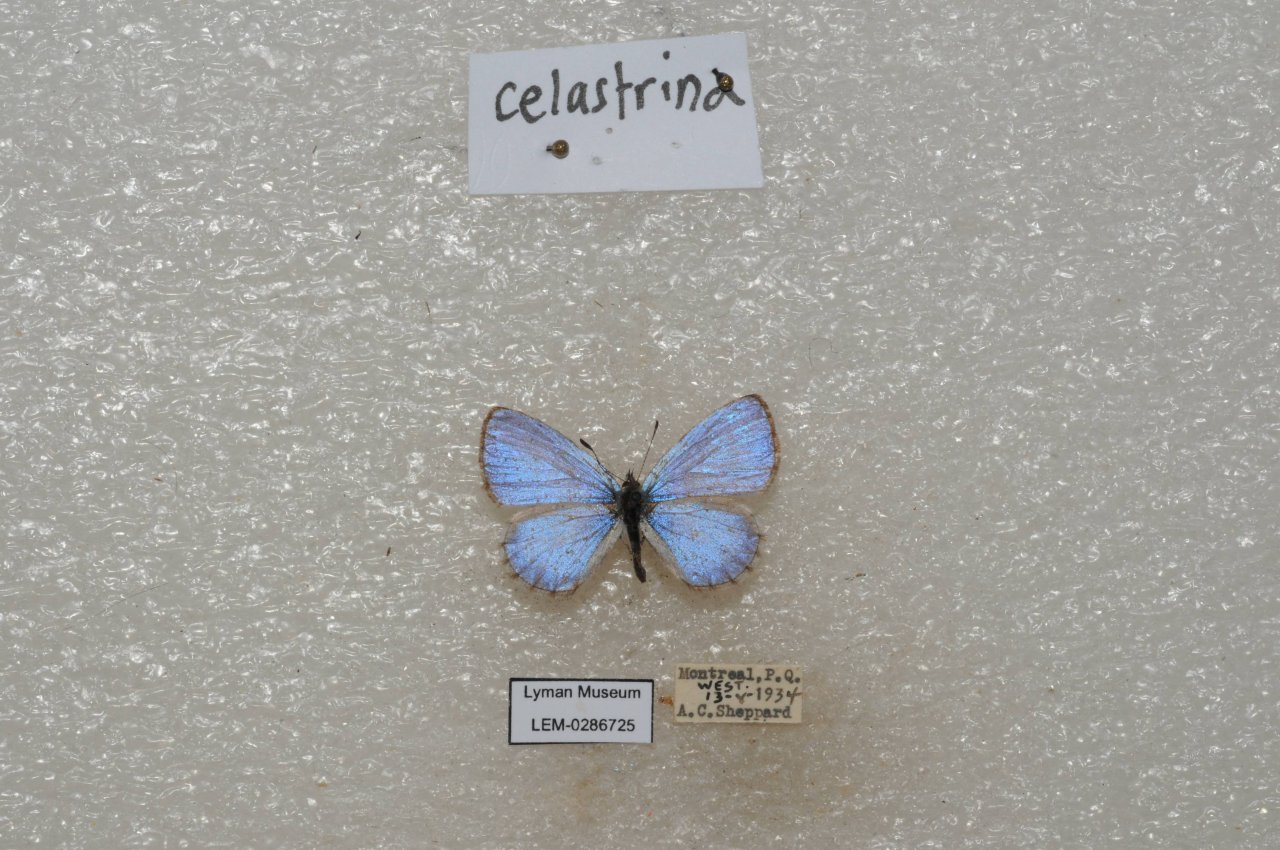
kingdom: Animalia
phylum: Arthropoda
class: Insecta
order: Lepidoptera
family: Lycaenidae
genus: Celastrina
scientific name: Celastrina lucia
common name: Northern Spring Azure
